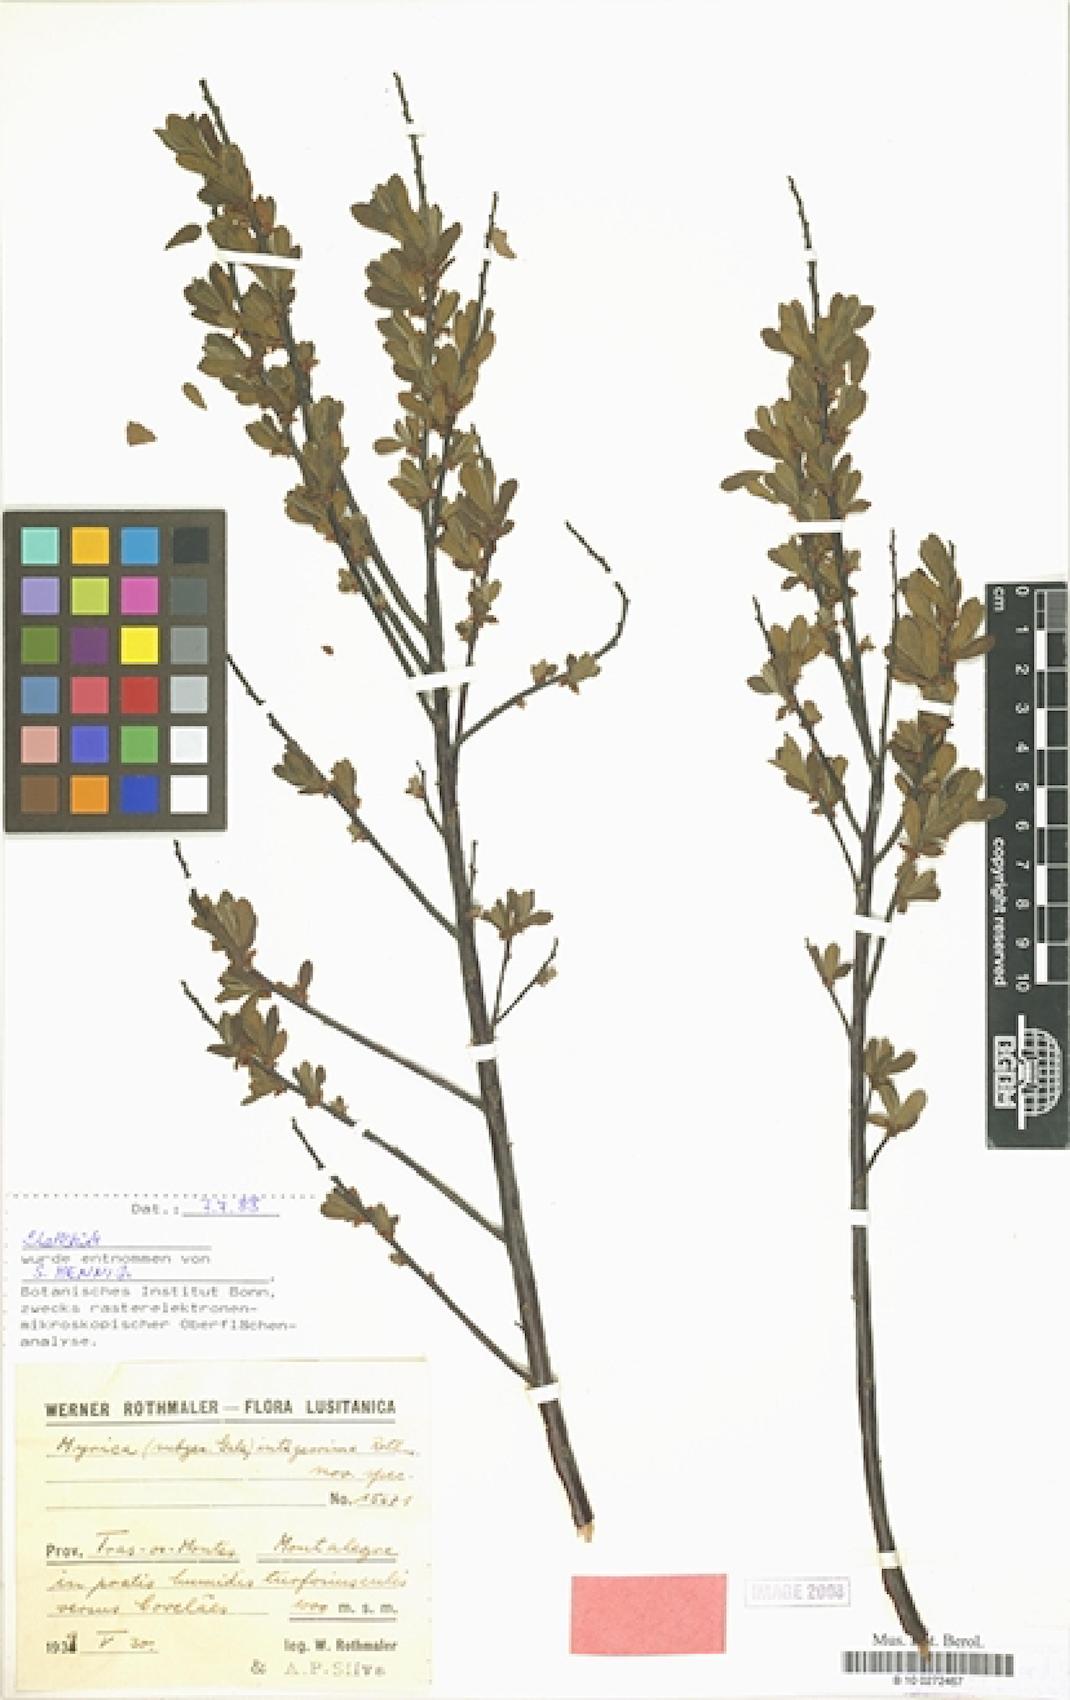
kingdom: Plantae
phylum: Tracheophyta
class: Magnoliopsida
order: Fagales
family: Myricaceae
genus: Myrica
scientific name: Myrica
